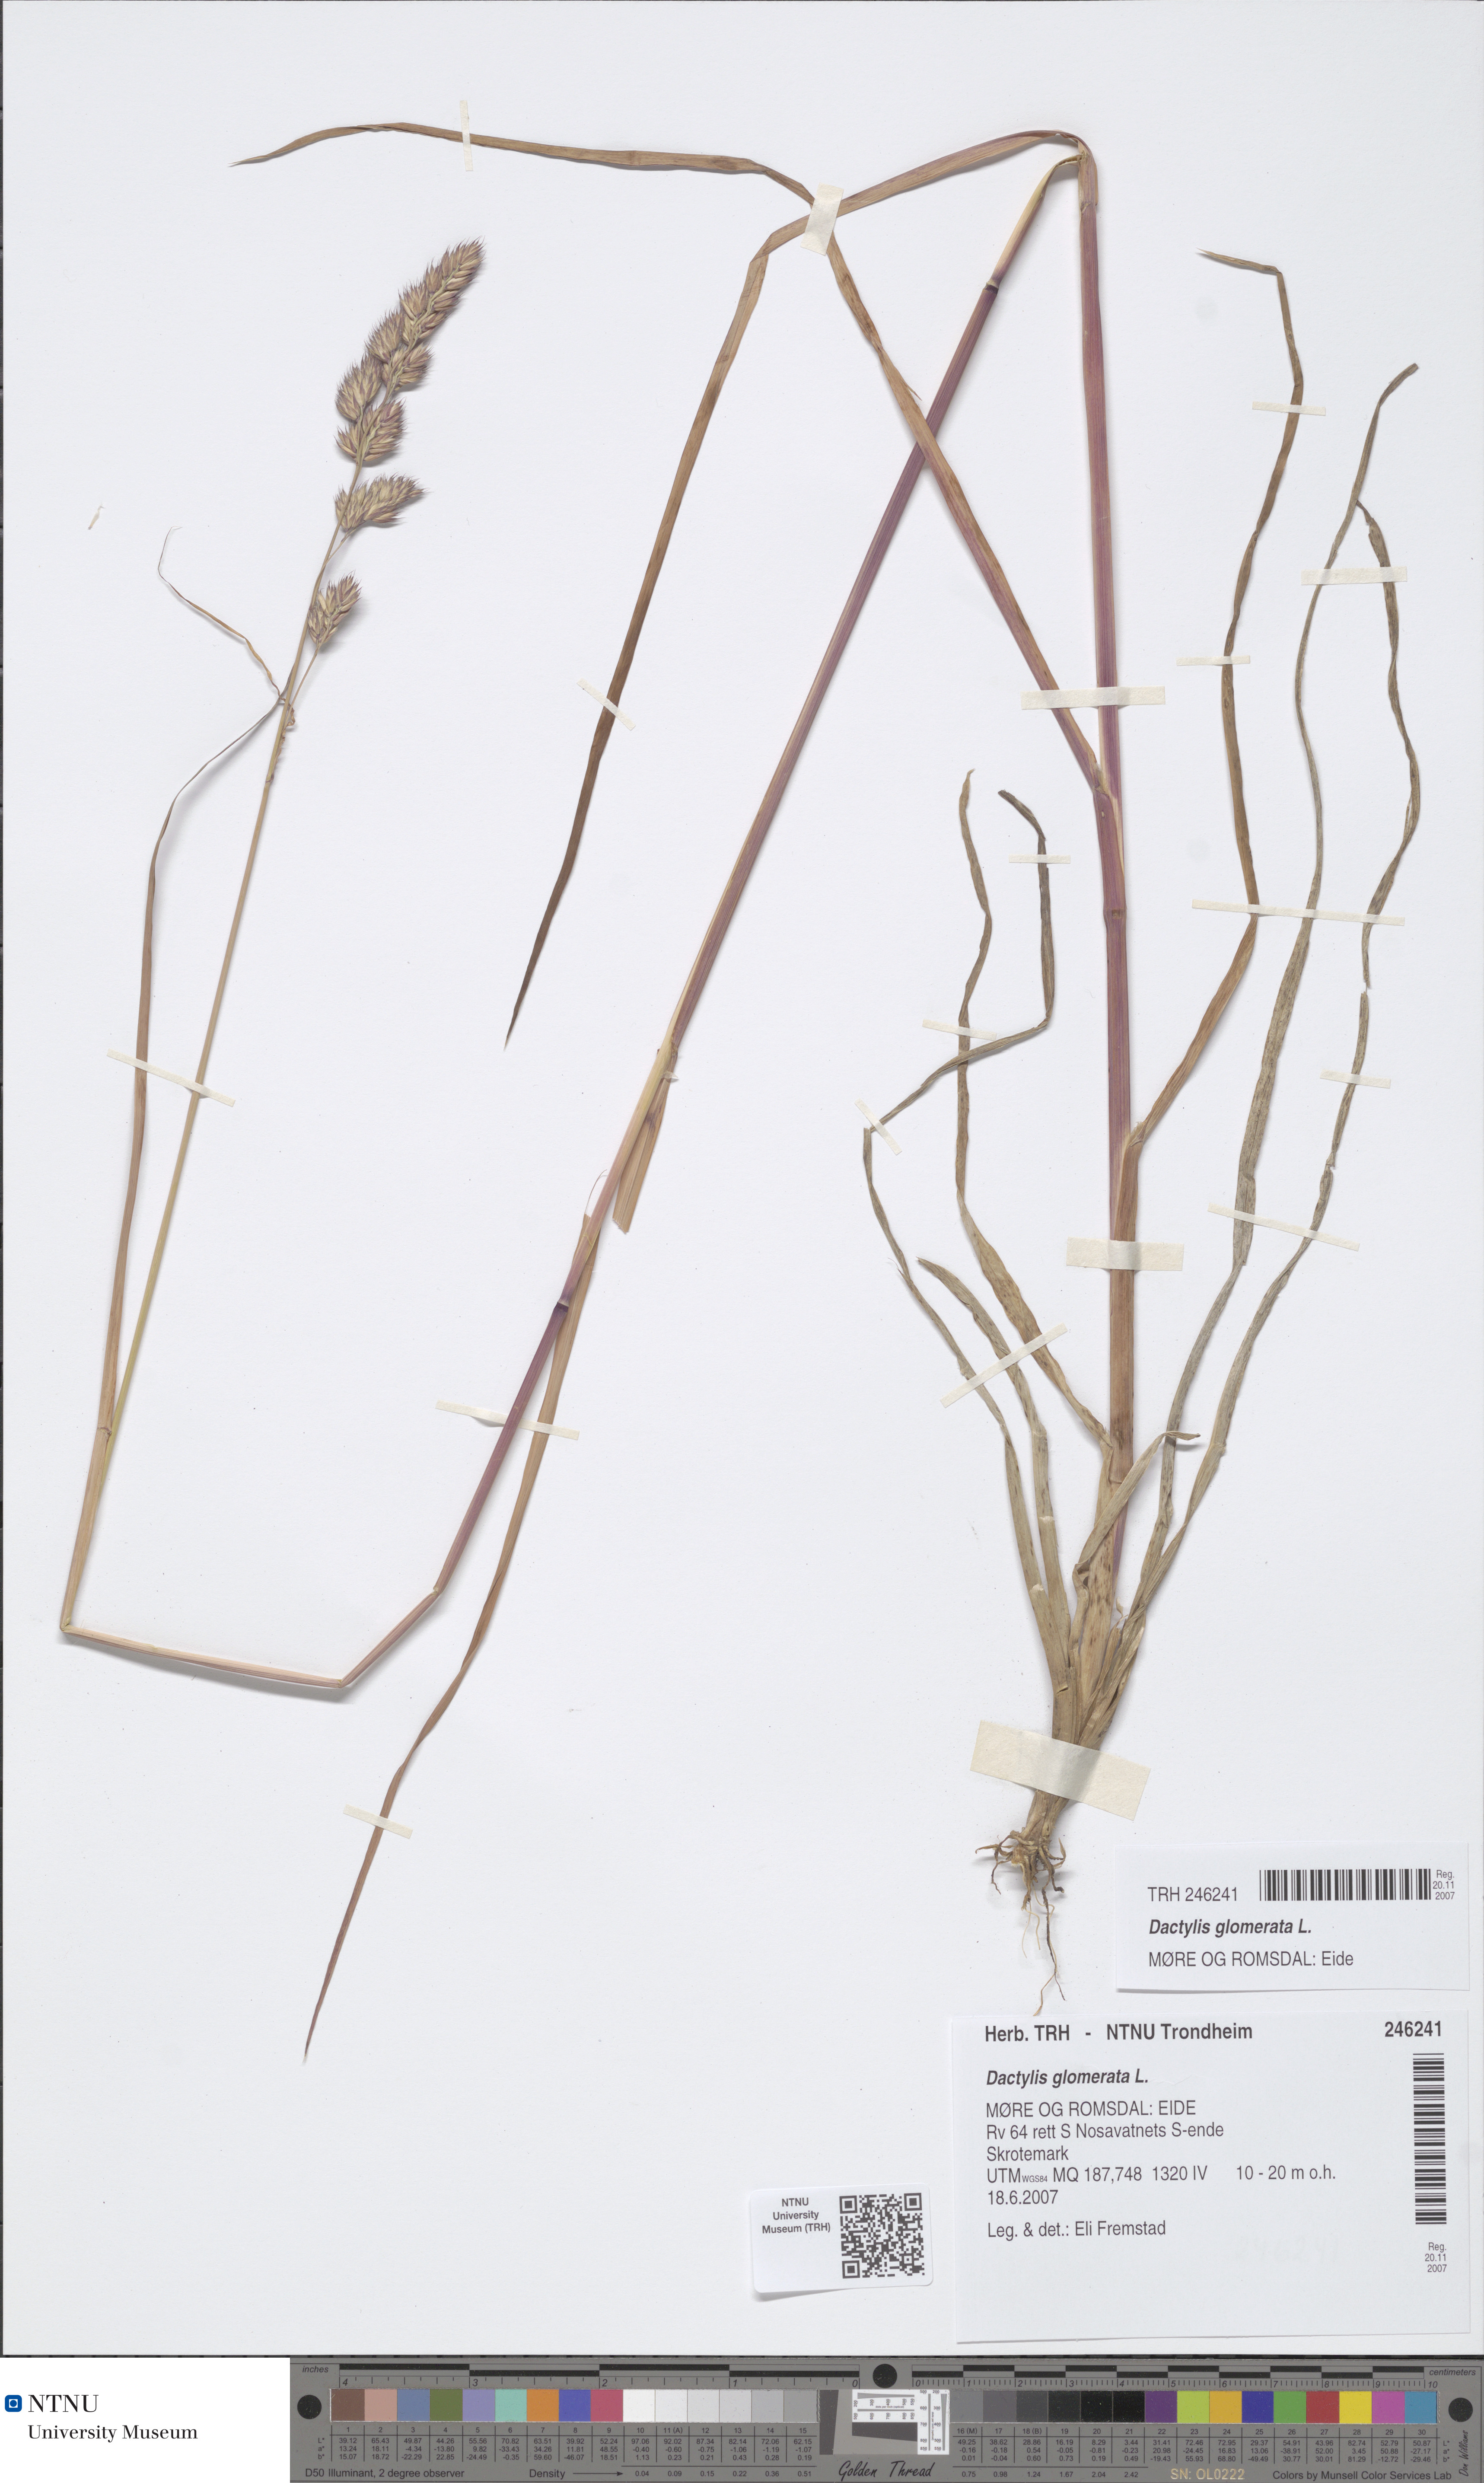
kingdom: Plantae
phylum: Tracheophyta
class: Liliopsida
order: Poales
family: Poaceae
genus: Dactylis
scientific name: Dactylis glomerata
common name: Orchardgrass
